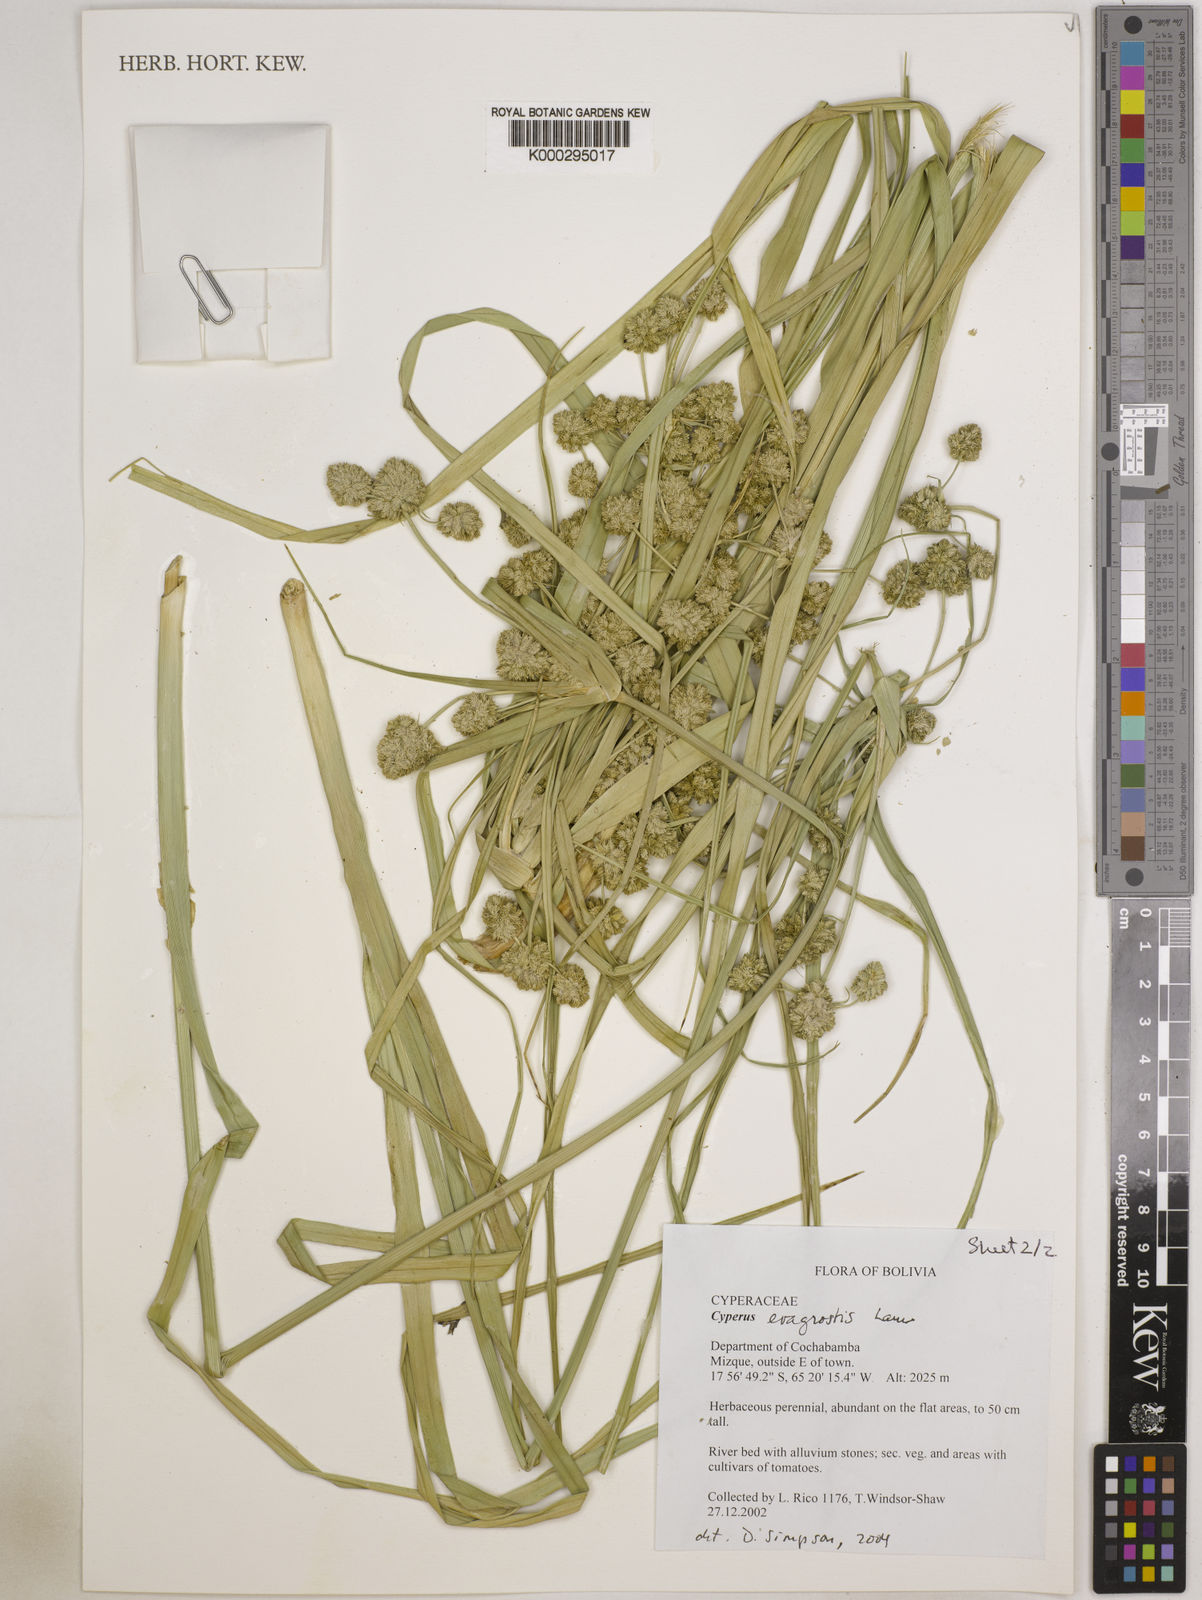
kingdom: Plantae
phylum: Tracheophyta
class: Liliopsida
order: Poales
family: Cyperaceae
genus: Cyperus
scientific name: Cyperus eragrostis
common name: Tall flatsedge
